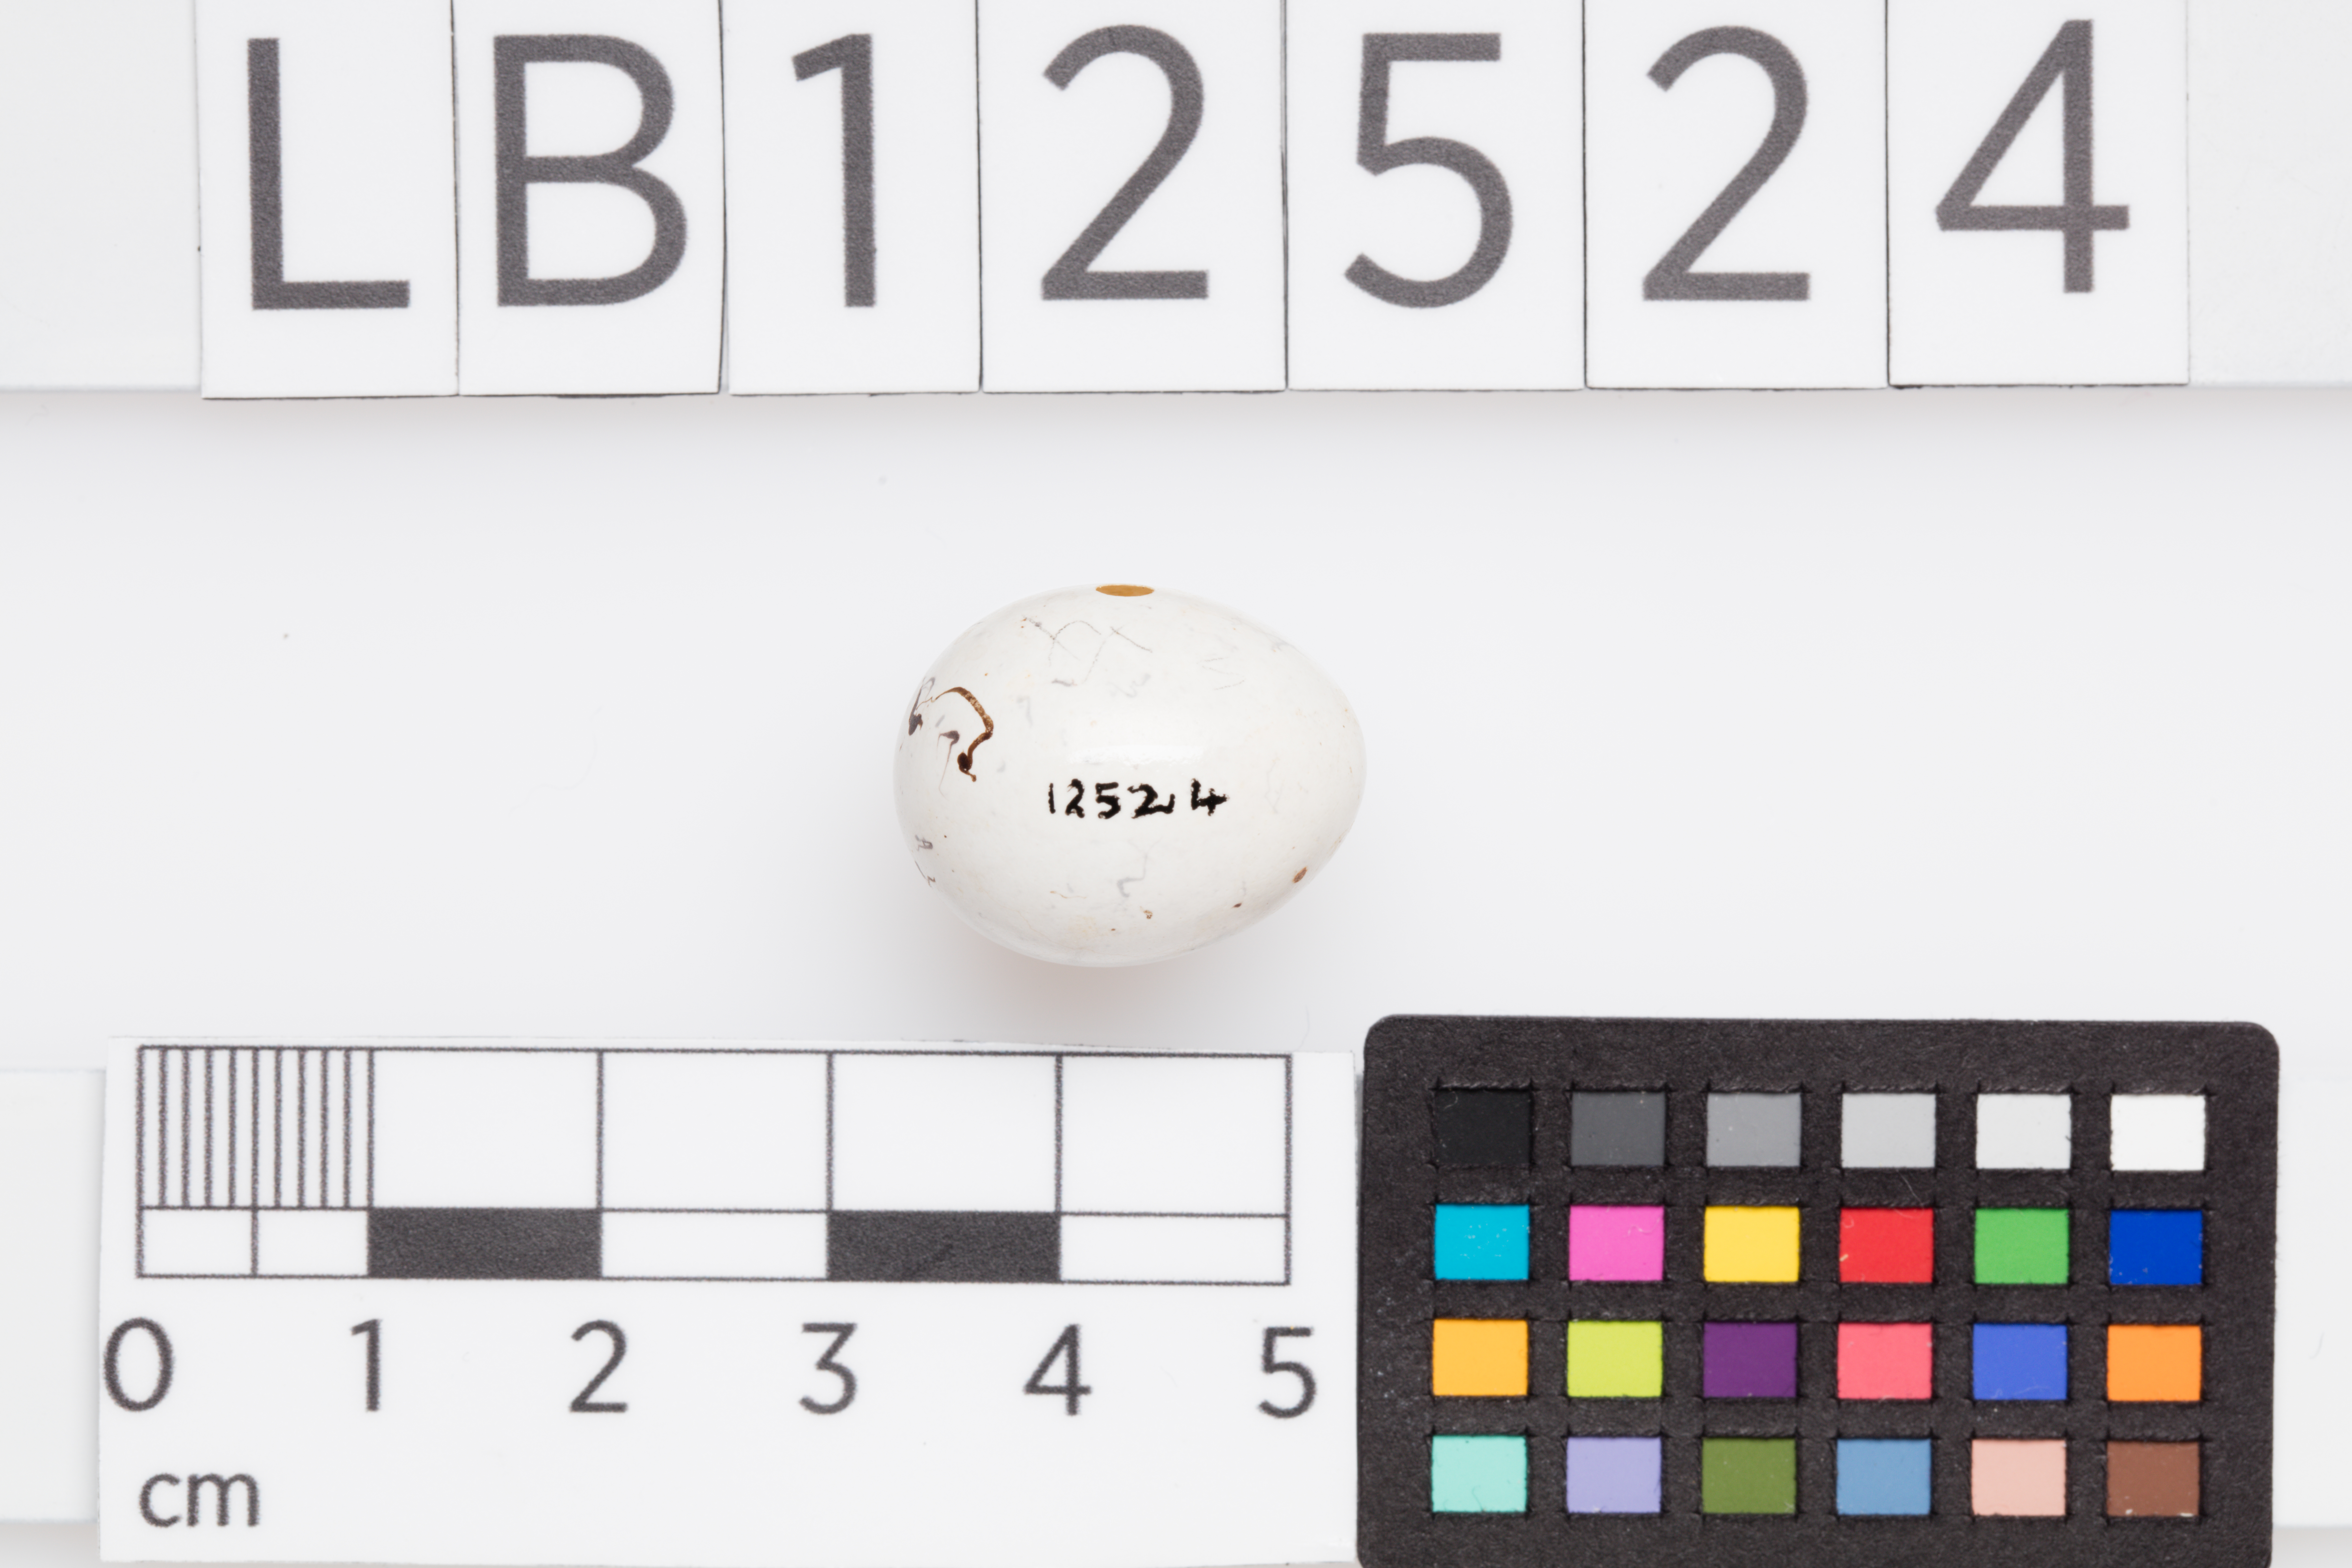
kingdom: Animalia
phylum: Chordata
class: Aves
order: Passeriformes
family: Passerellidae
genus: Chondestes
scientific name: Chondestes grammacus
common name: Lark sparrow
